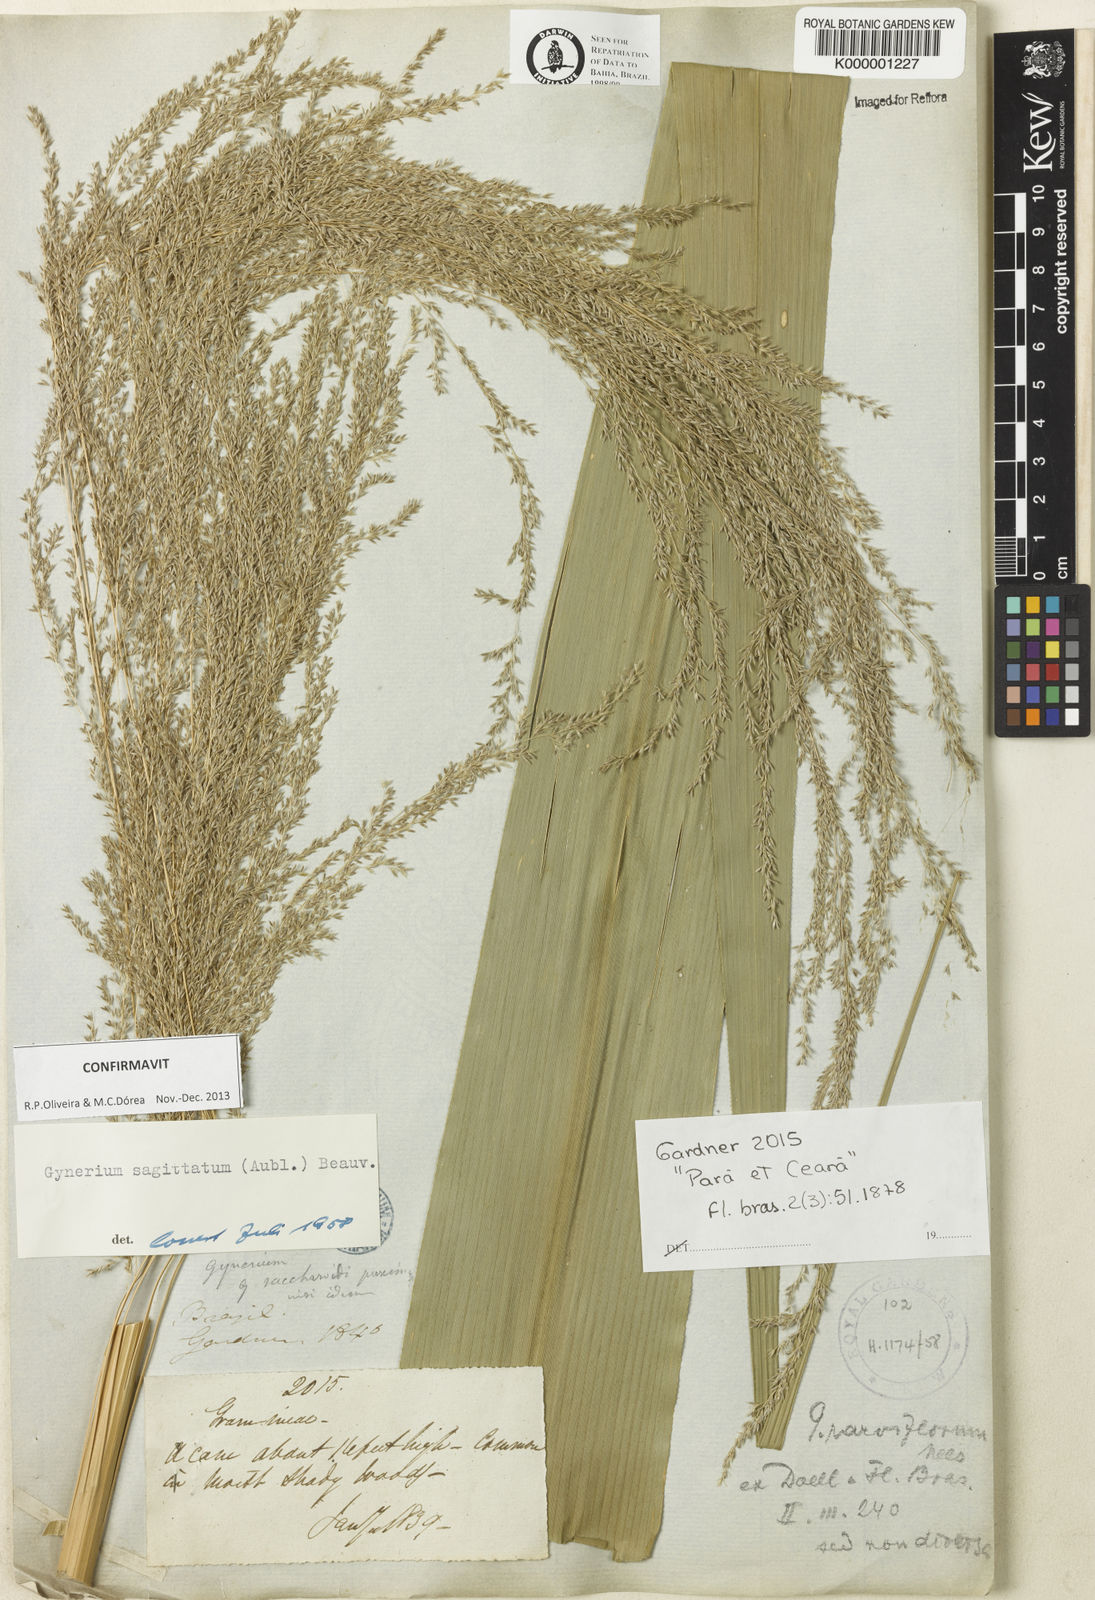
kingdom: Plantae
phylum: Tracheophyta
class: Liliopsida
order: Poales
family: Poaceae
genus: Gynerium
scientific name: Gynerium sagittatum
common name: Wild cane
